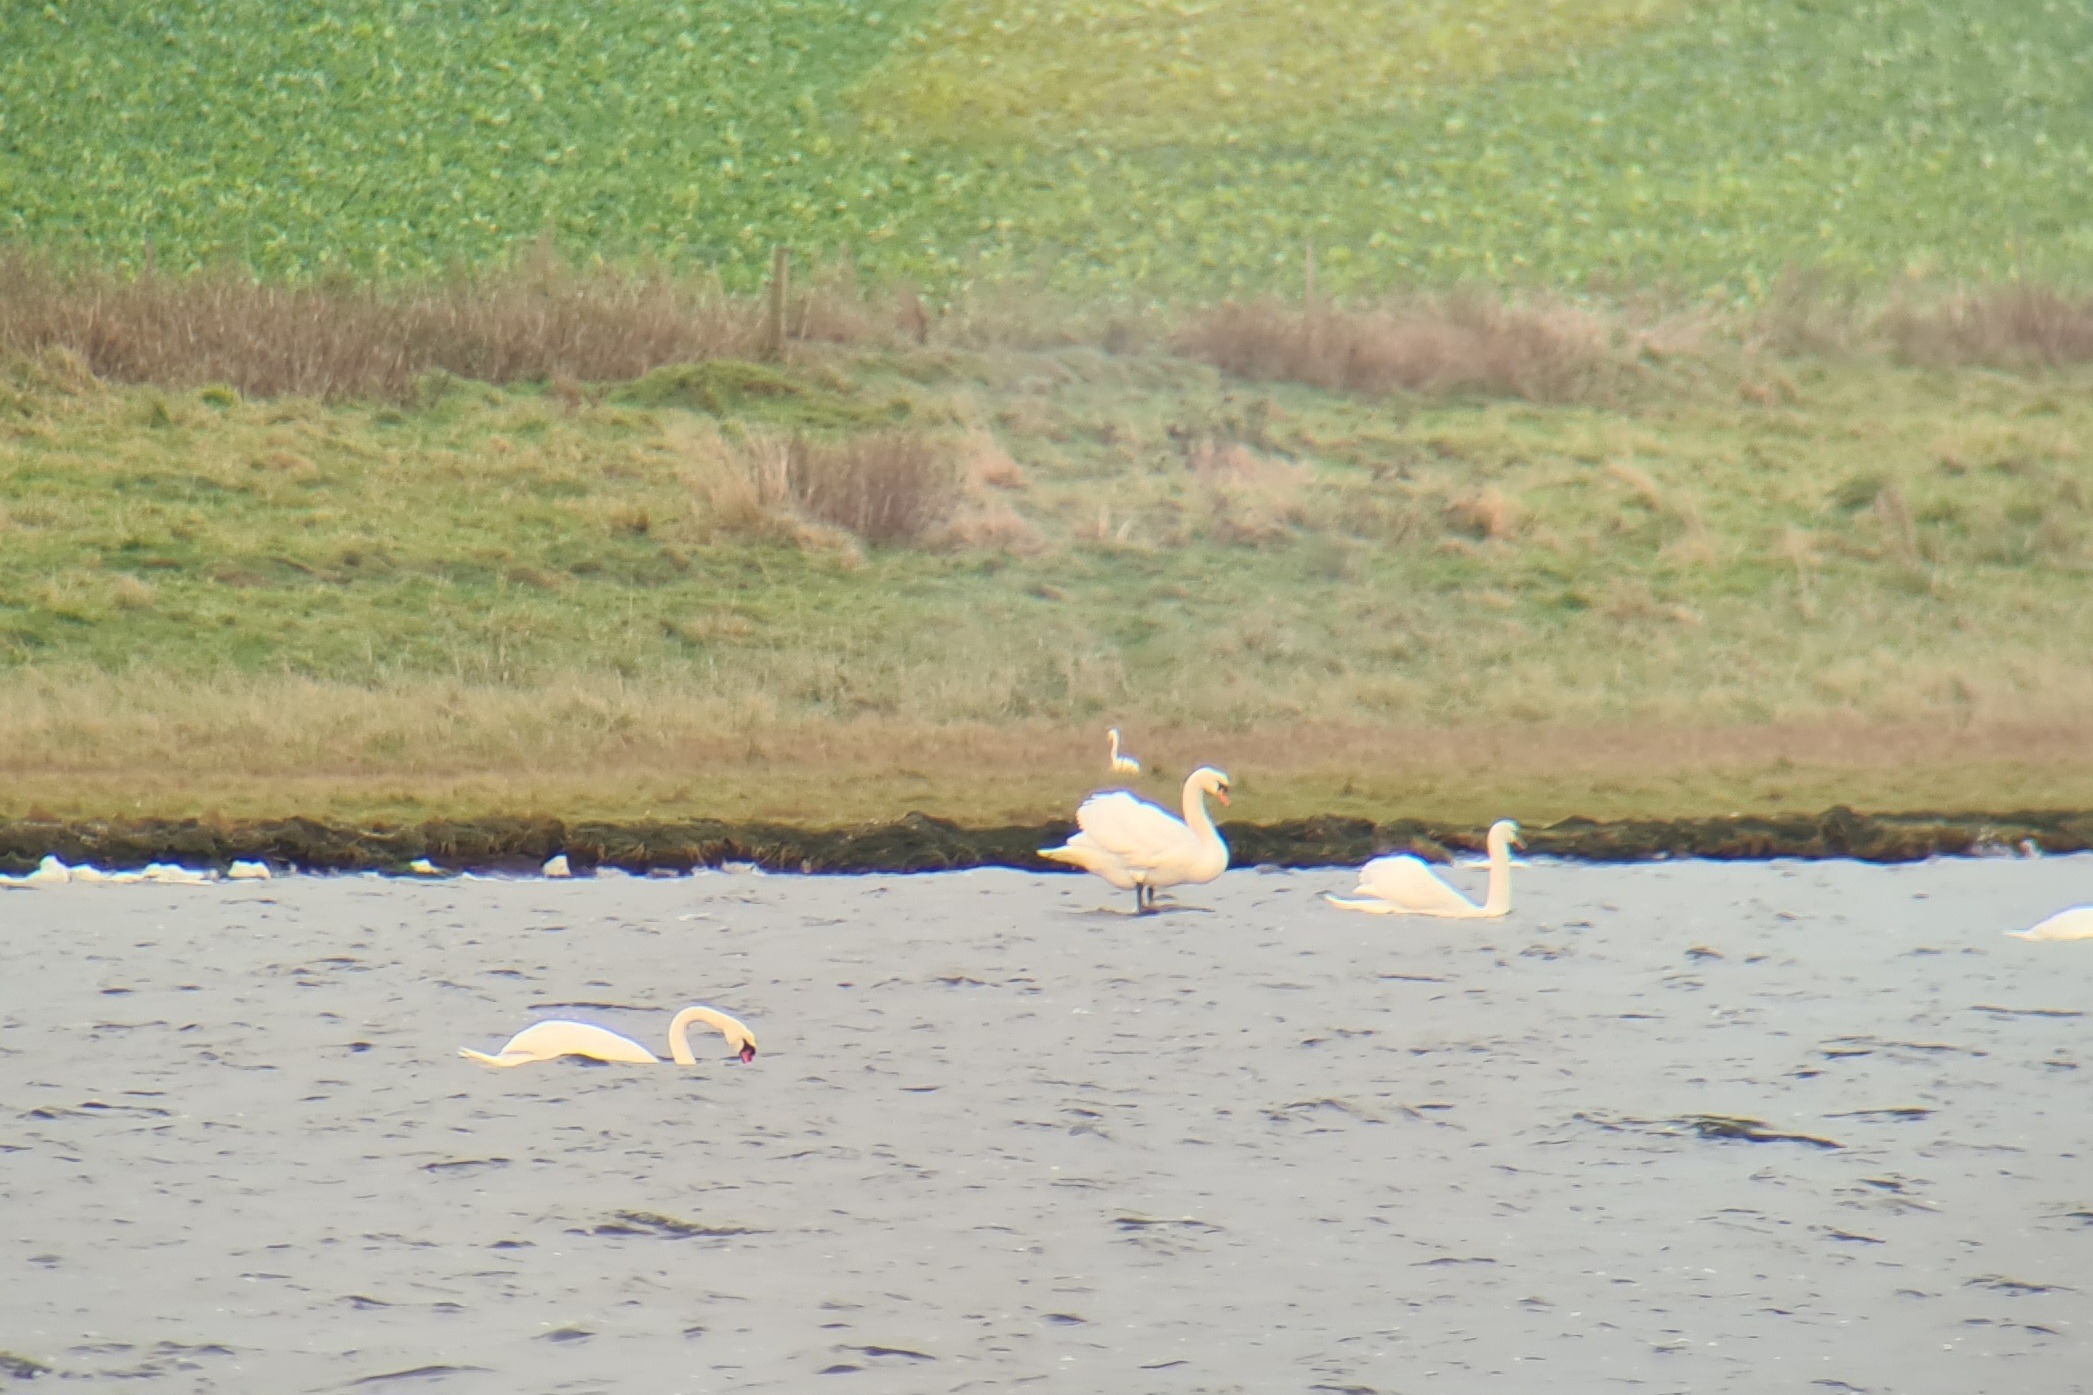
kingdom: Animalia
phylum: Chordata
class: Aves
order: Anseriformes
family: Anatidae
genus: Cygnus
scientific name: Cygnus olor
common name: Knopsvane
